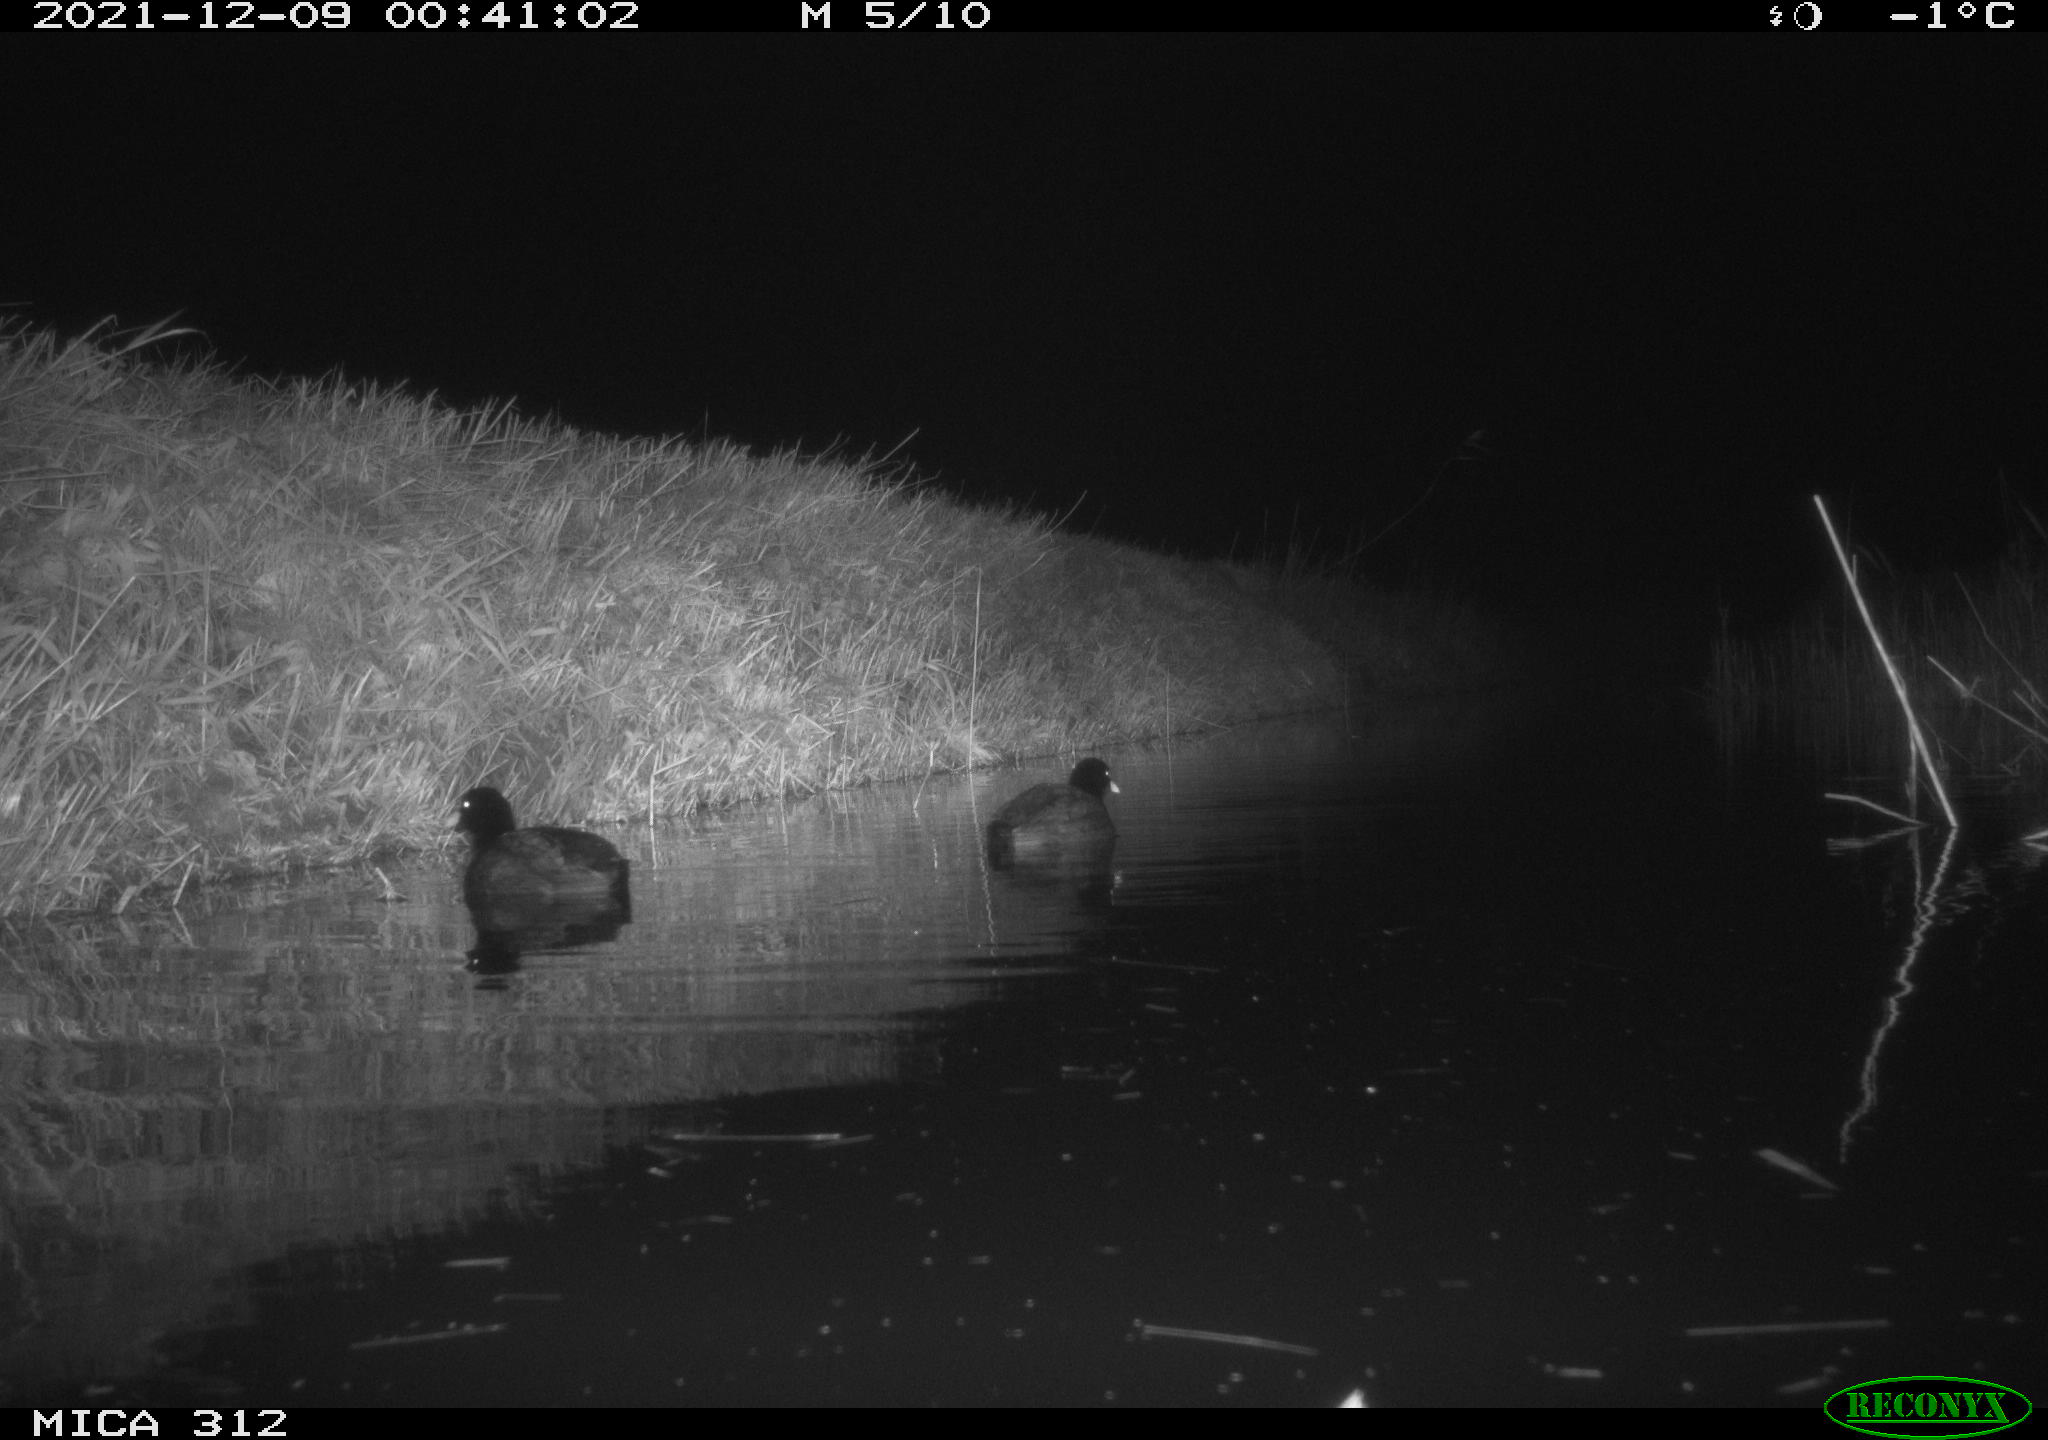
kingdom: Animalia
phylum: Chordata
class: Aves
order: Gruiformes
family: Rallidae
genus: Fulica
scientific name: Fulica atra
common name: Eurasian coot
